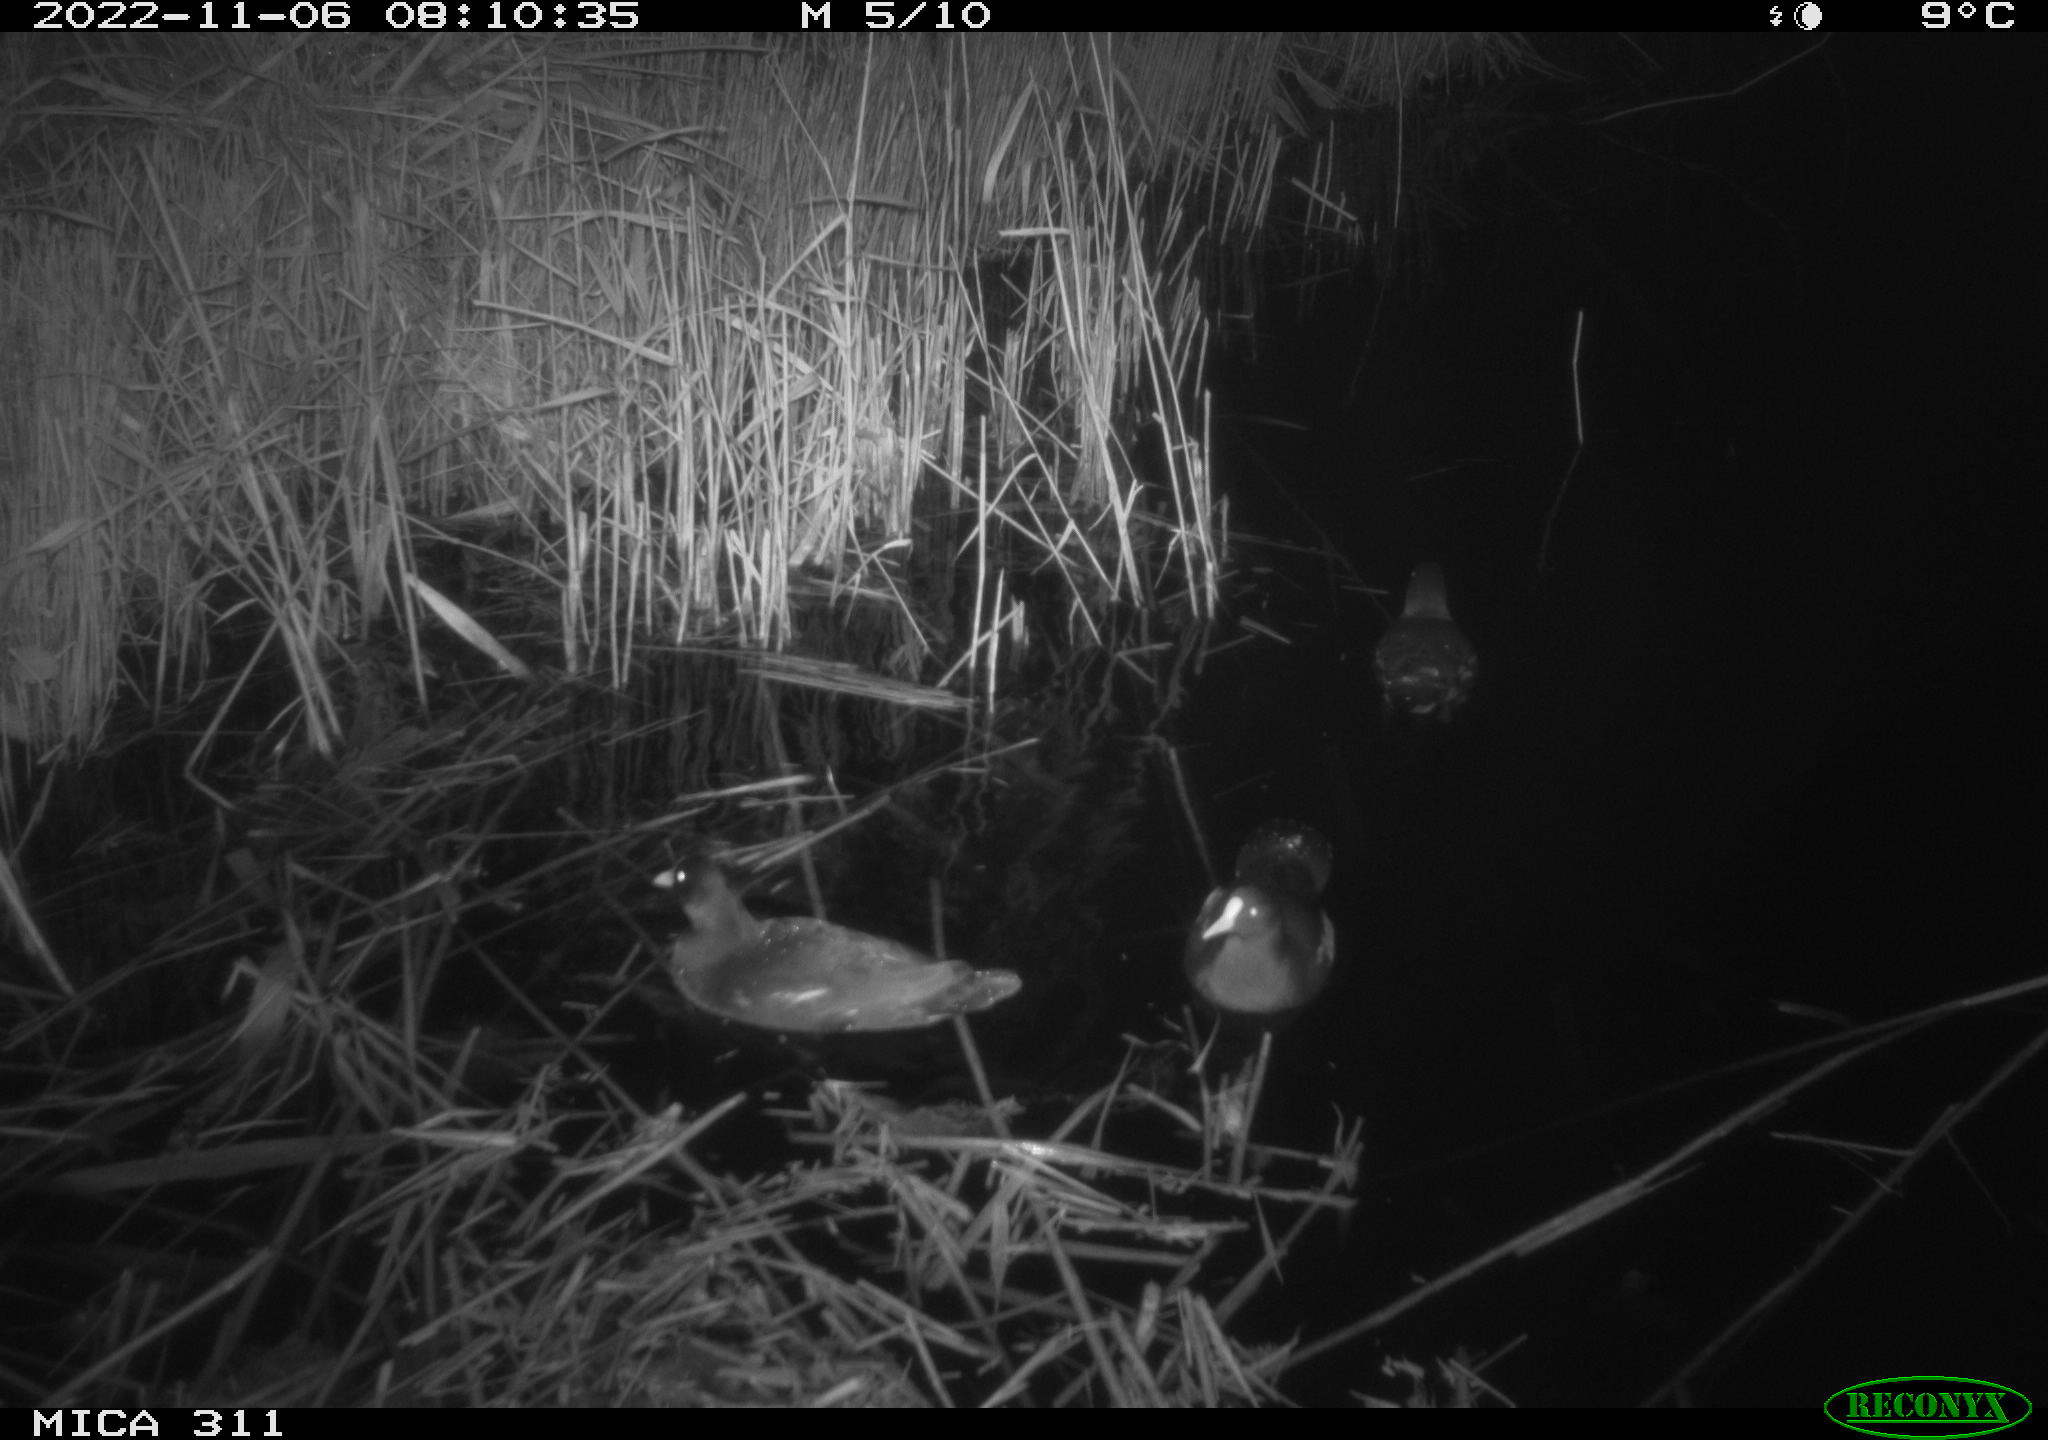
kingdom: Animalia
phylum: Chordata
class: Aves
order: Gruiformes
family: Rallidae
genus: Gallinula
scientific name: Gallinula chloropus
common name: Common moorhen
